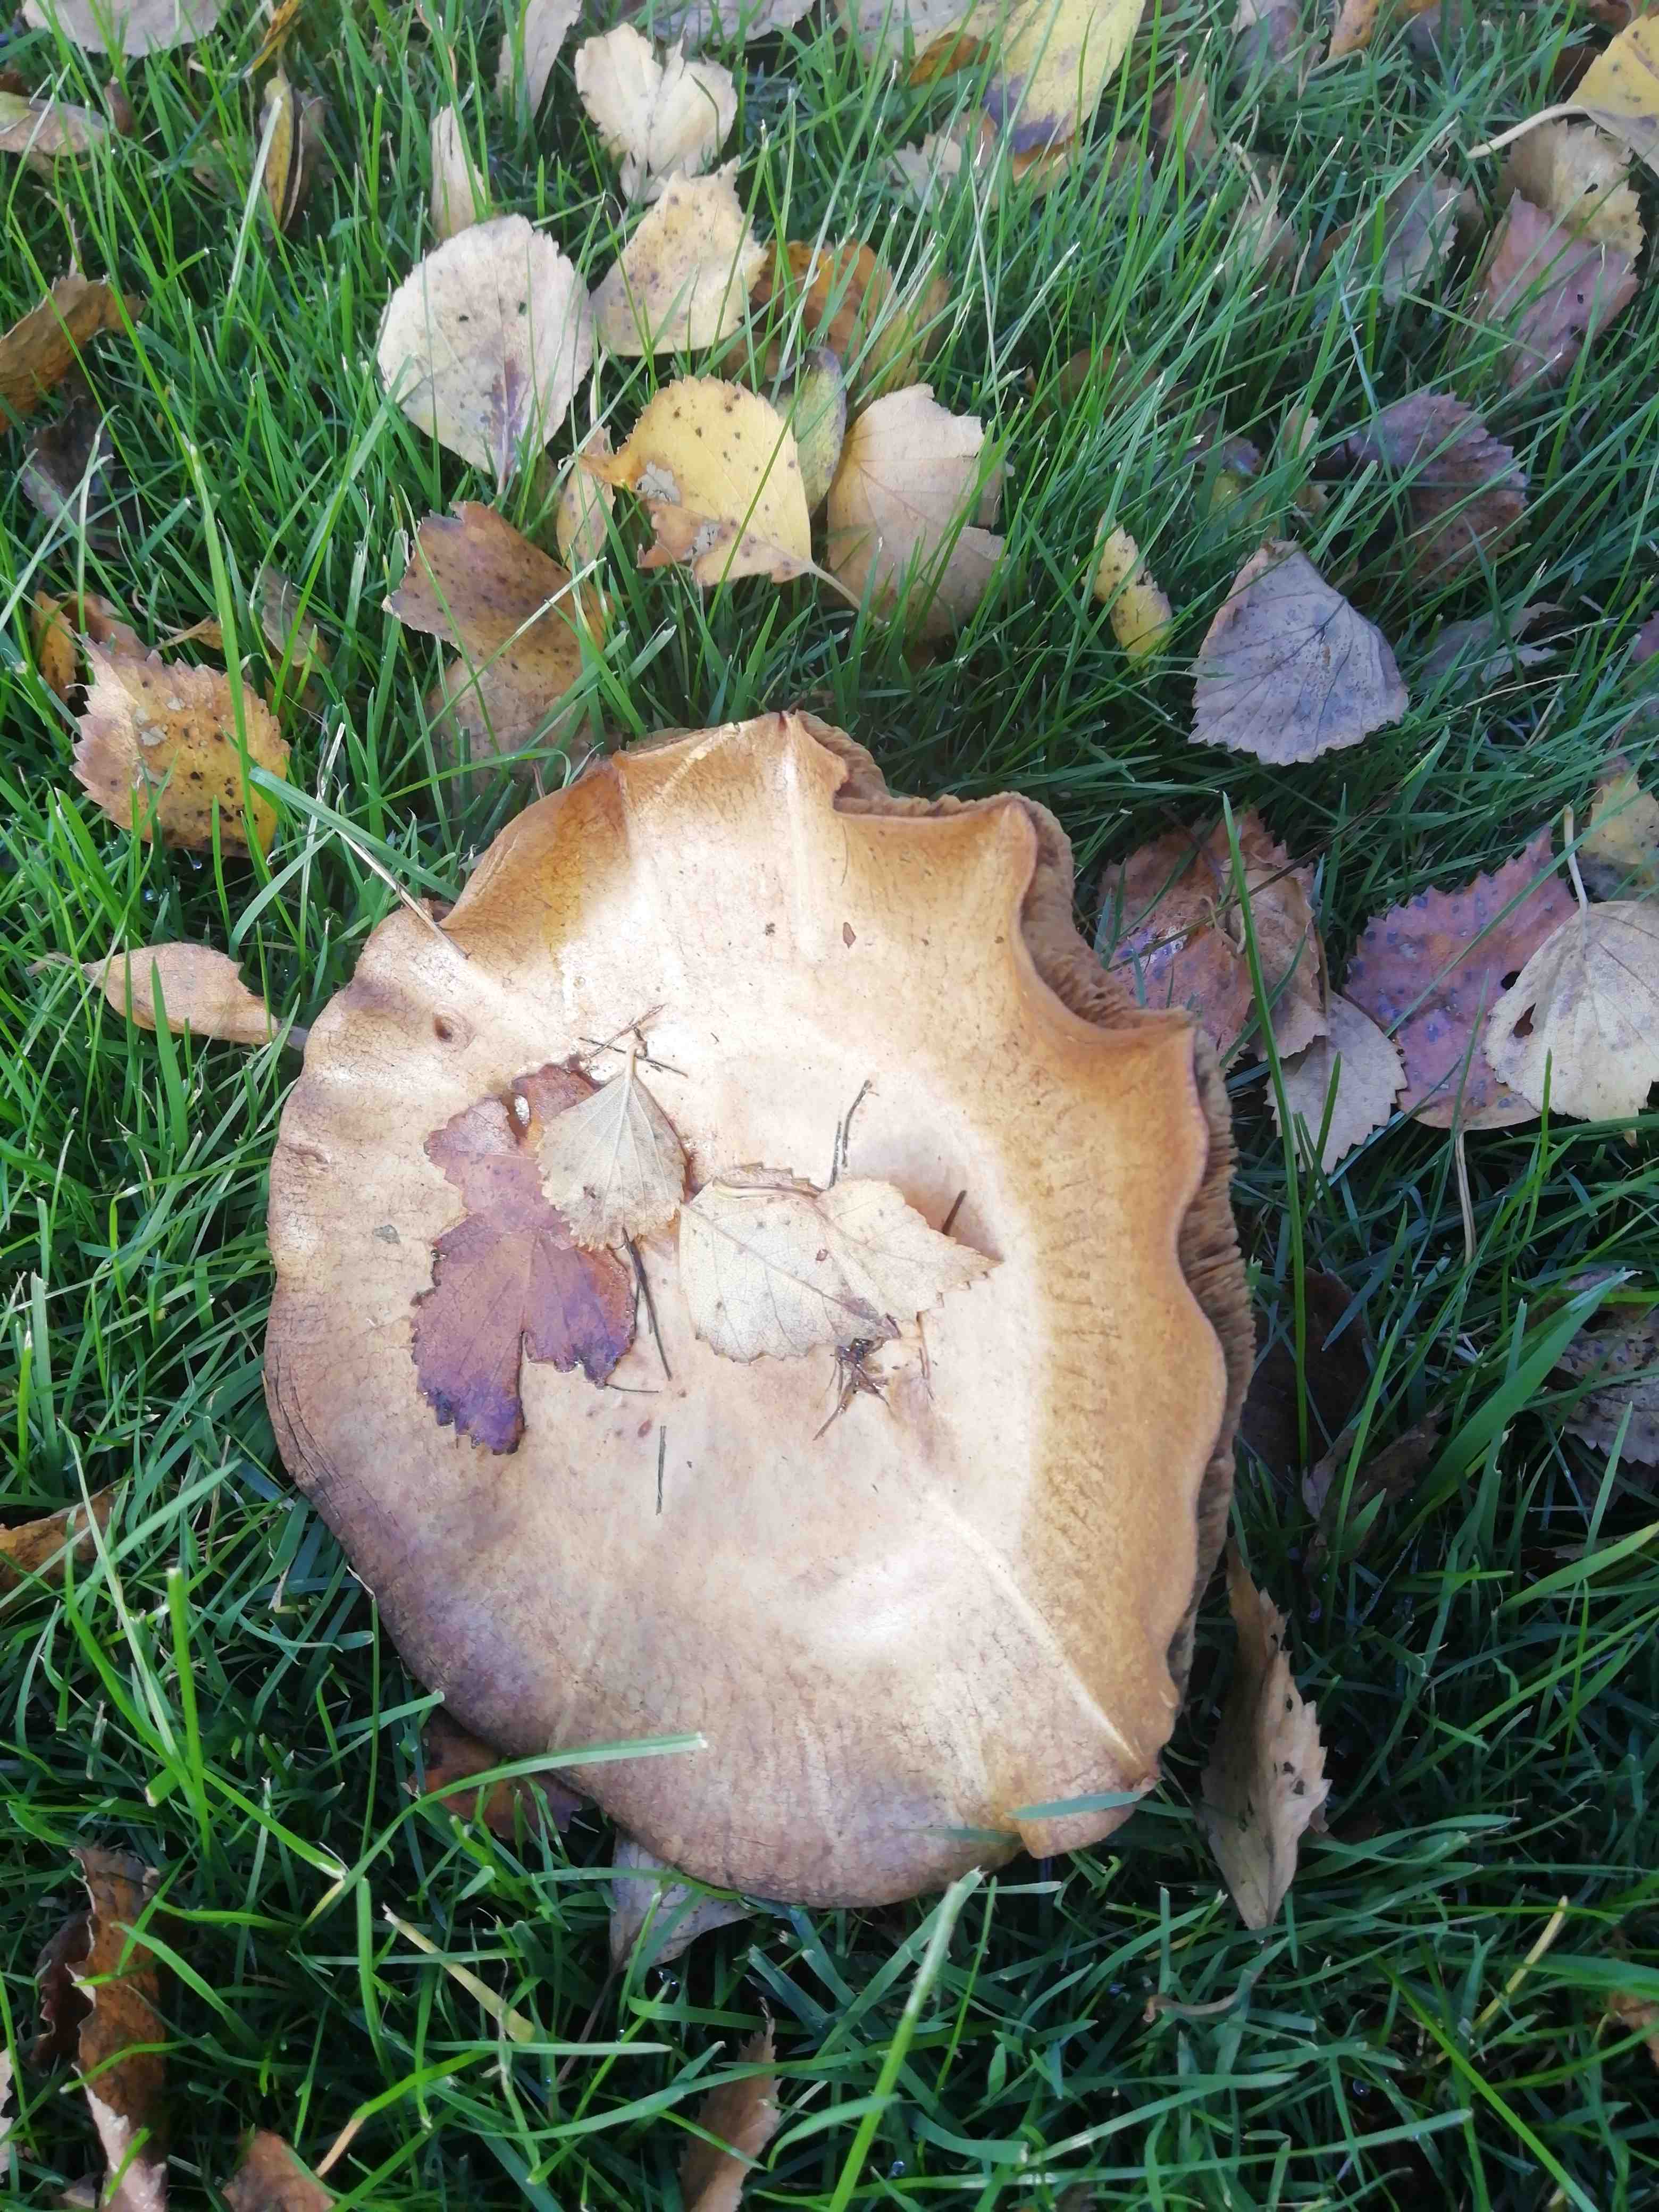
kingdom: Fungi
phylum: Basidiomycota
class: Agaricomycetes
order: Boletales
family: Paxillaceae
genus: Paxillus
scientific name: Paxillus
